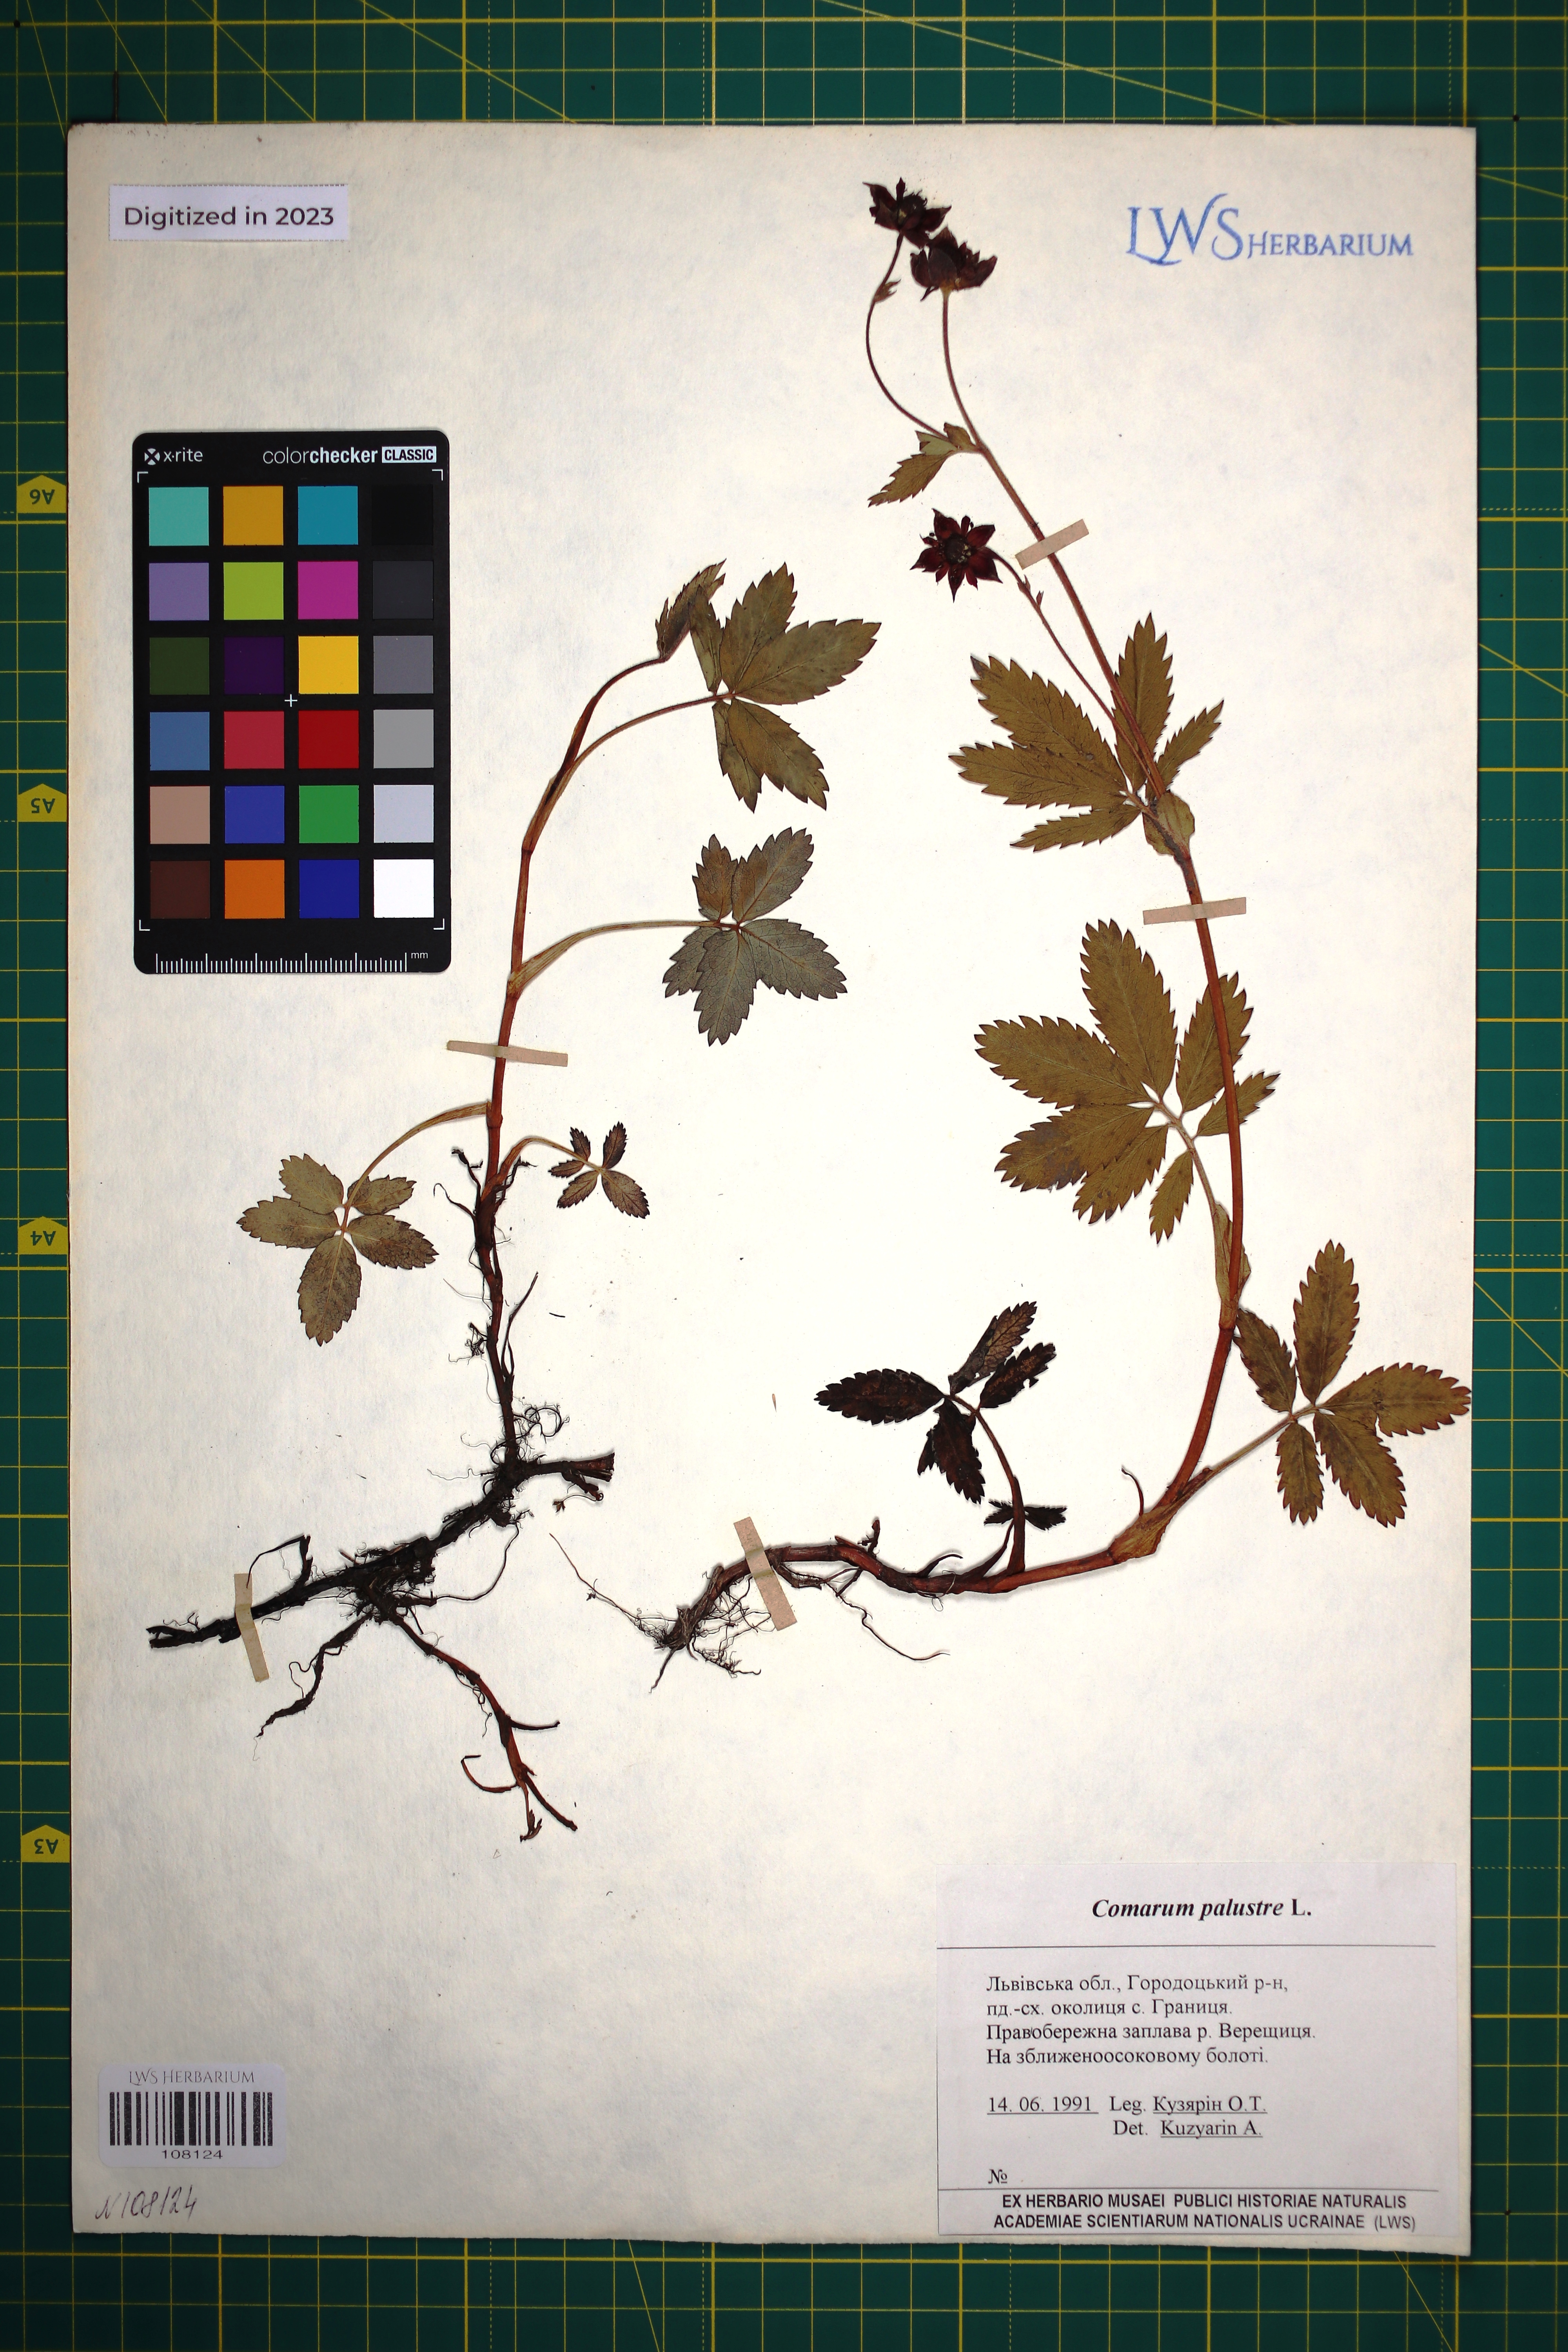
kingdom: Plantae
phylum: Tracheophyta
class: Magnoliopsida
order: Rosales
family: Rosaceae
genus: Comarum
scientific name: Comarum palustre
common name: Marsh cinquefoil
